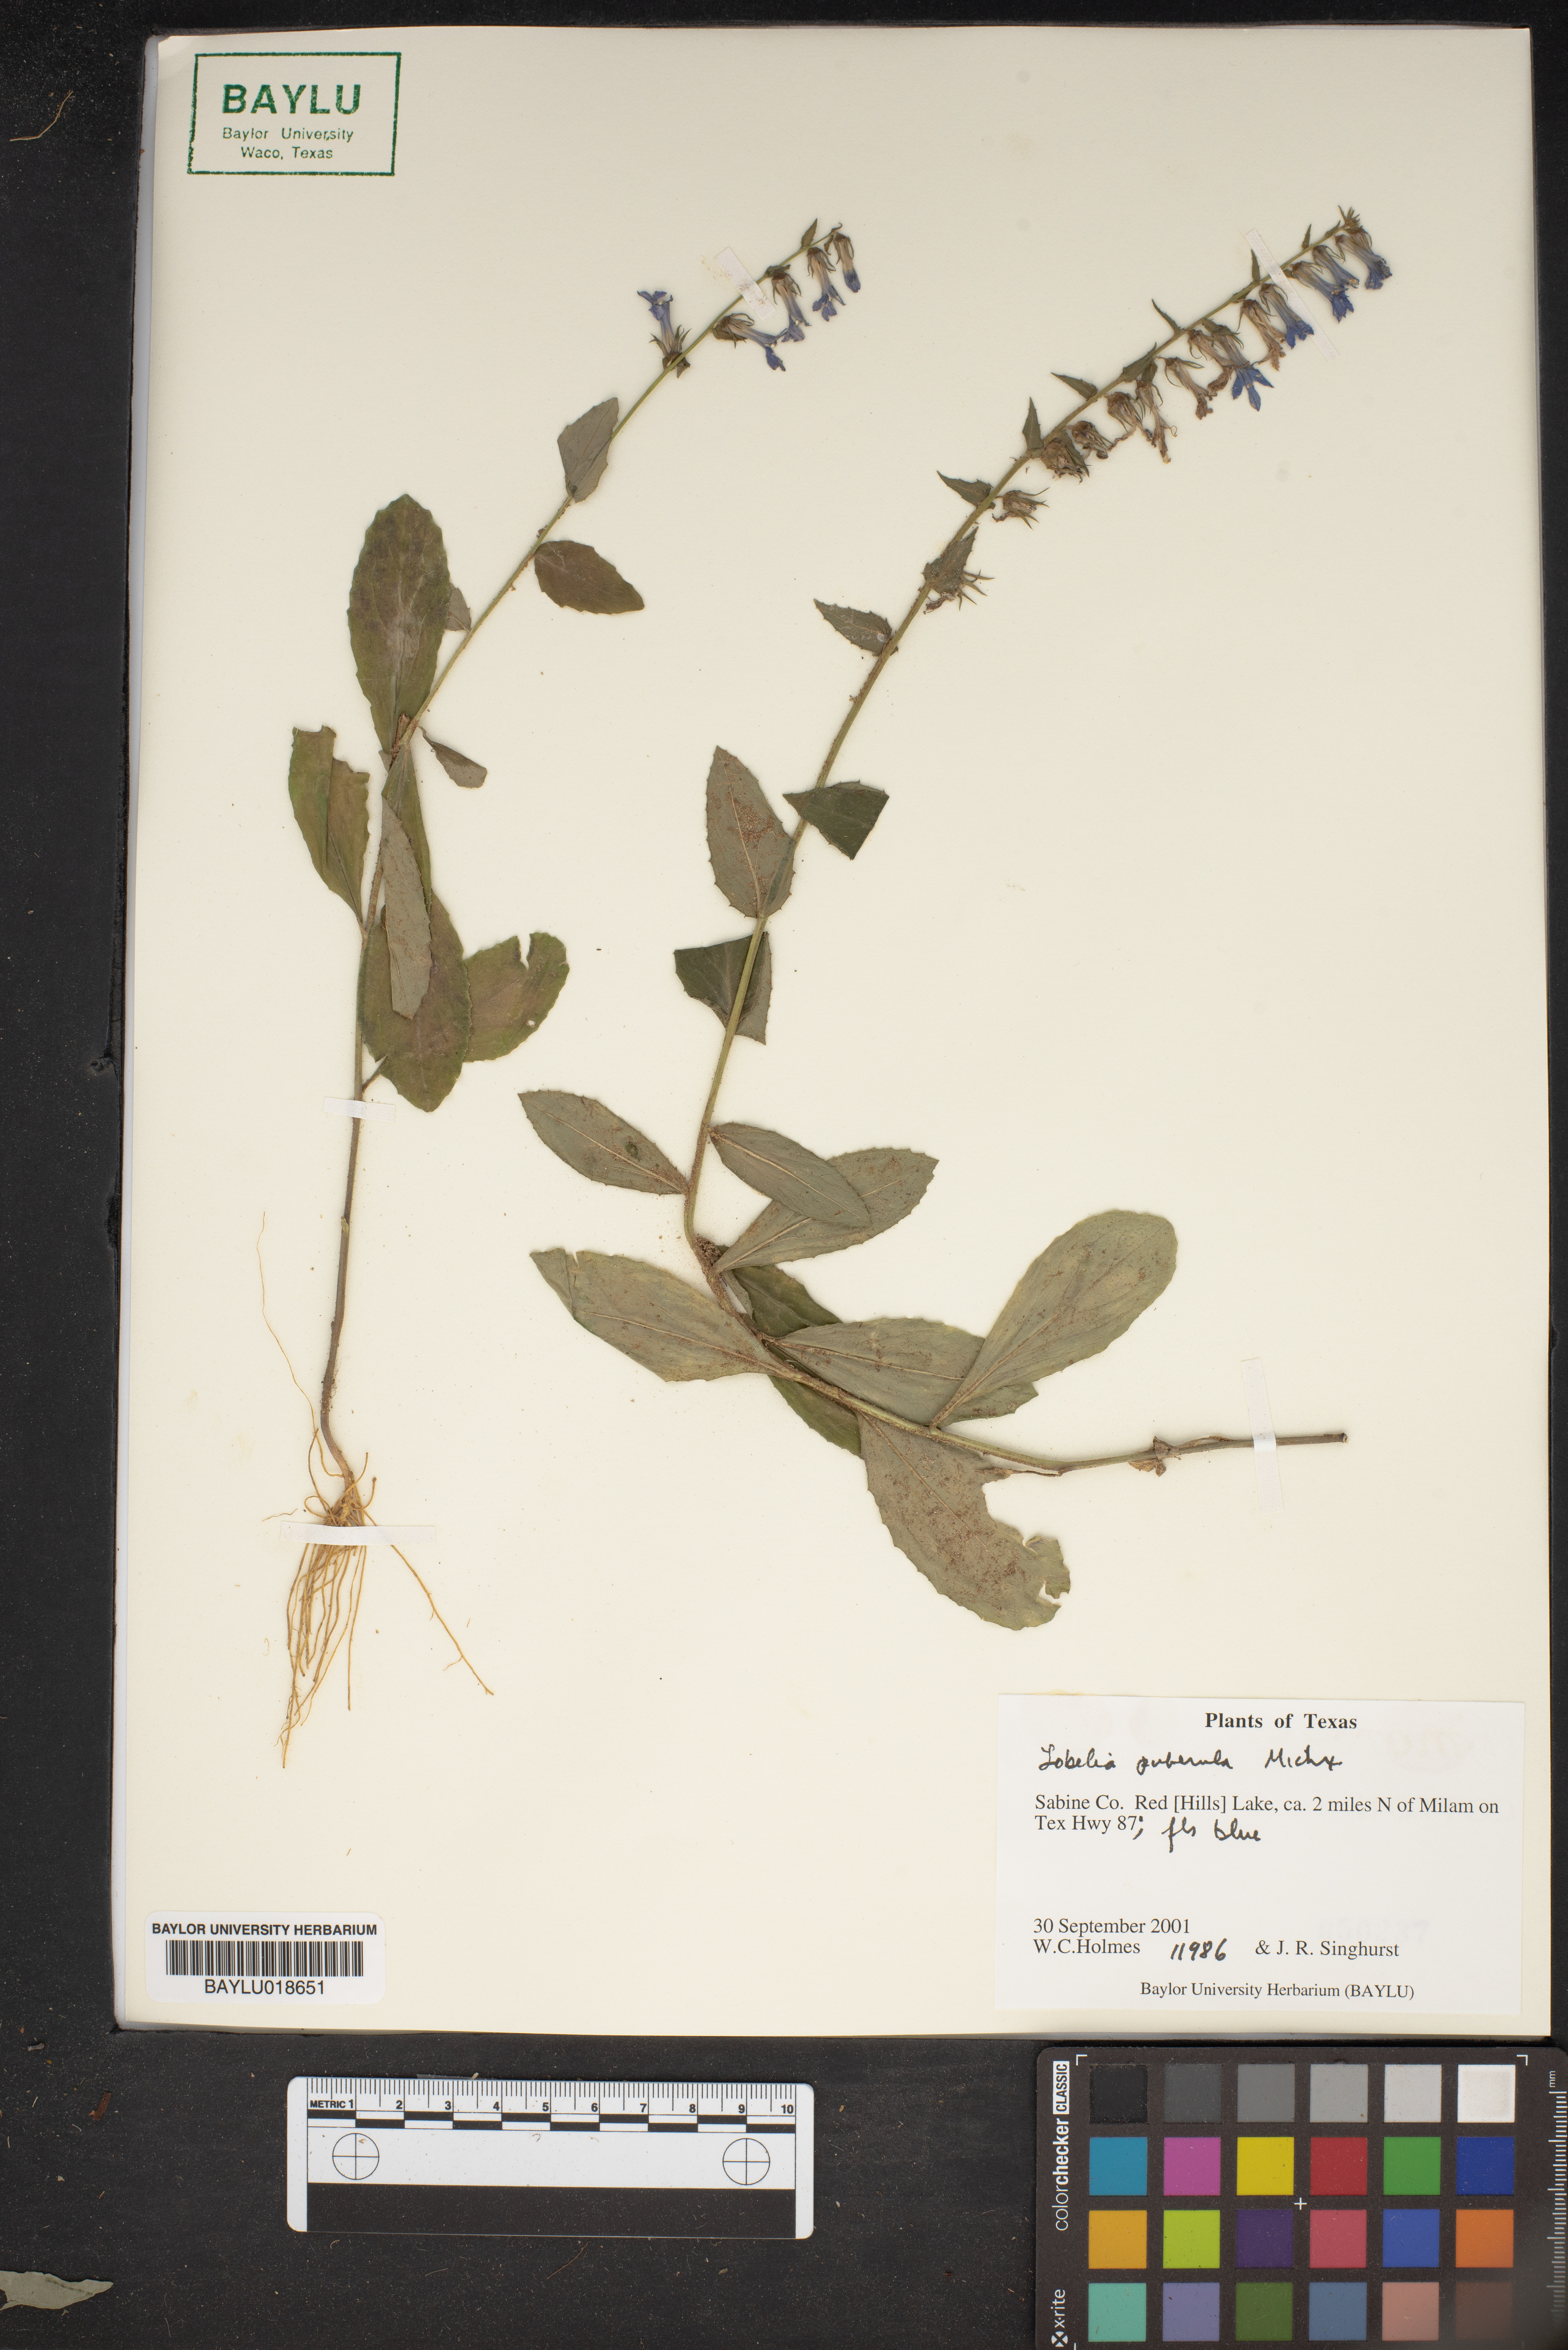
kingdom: Plantae
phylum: Tracheophyta
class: Magnoliopsida
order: Asterales
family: Campanulaceae
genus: Lobelia
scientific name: Lobelia pubescens
